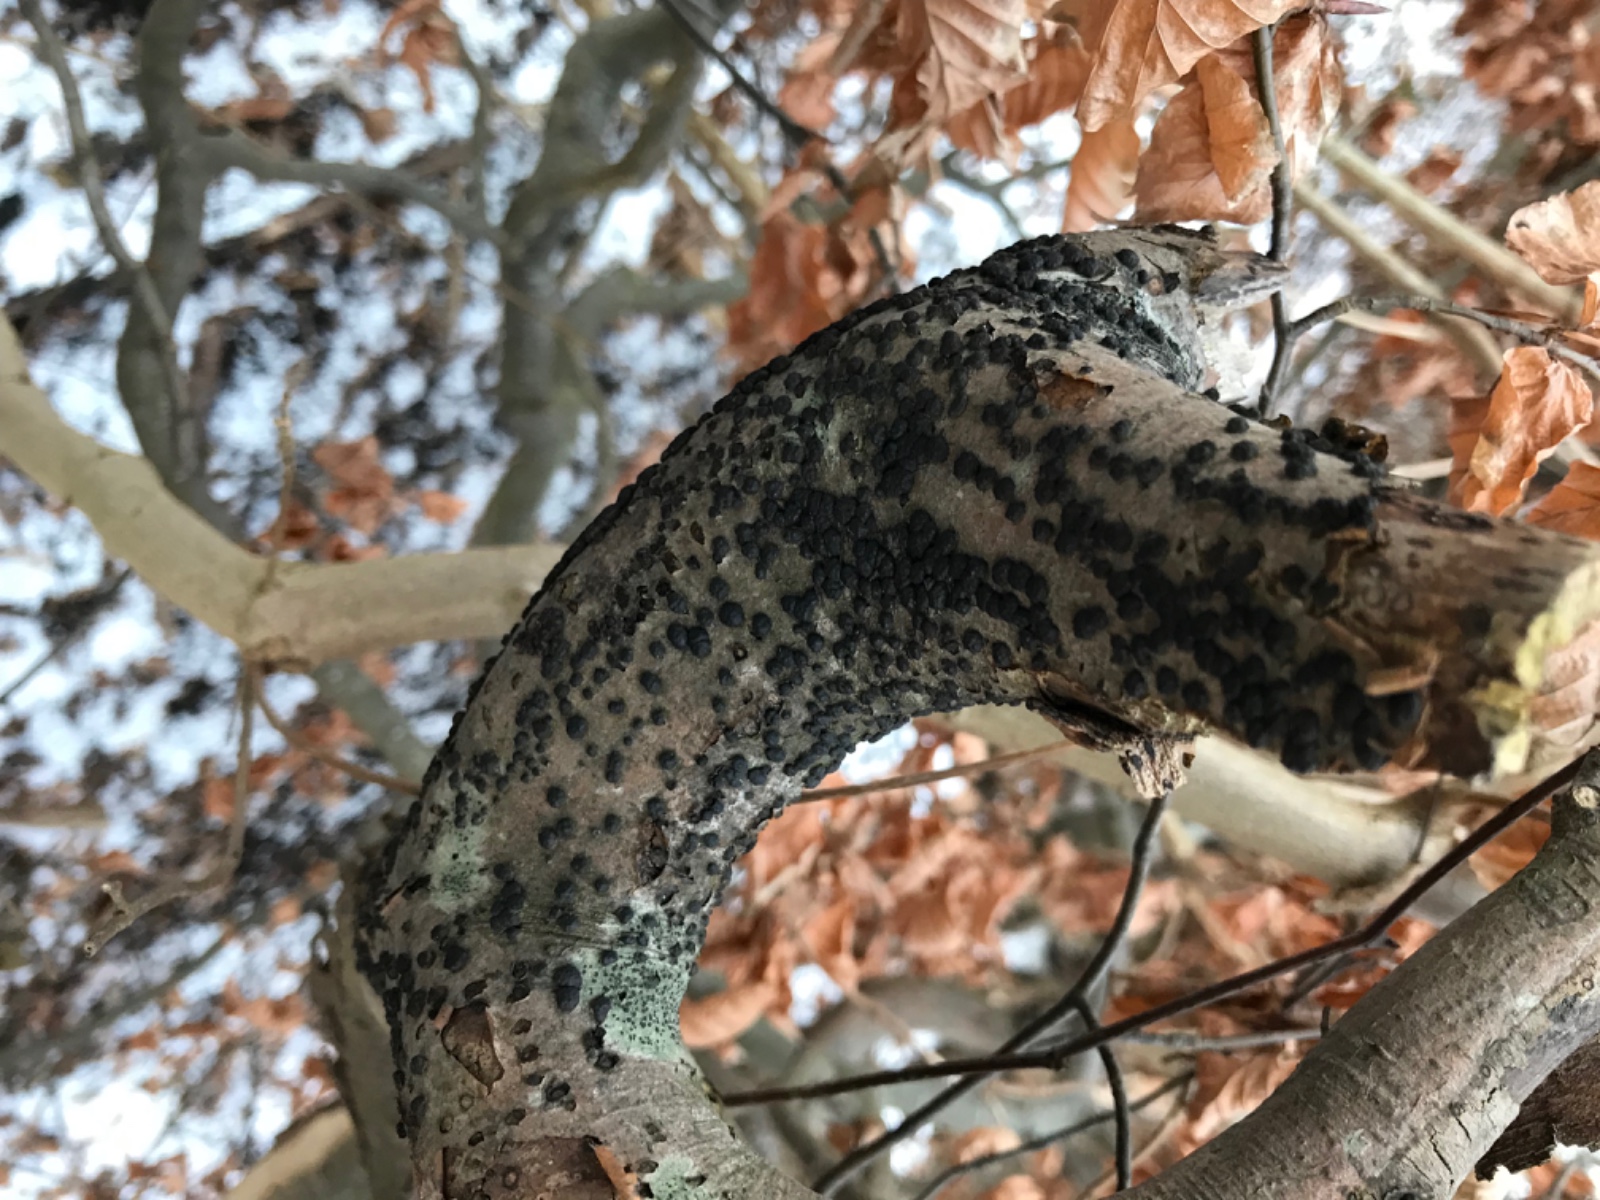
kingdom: Fungi
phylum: Ascomycota
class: Sordariomycetes
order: Xylariales
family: Hypoxylaceae
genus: Jackrogersella
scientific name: Jackrogersella cohaerens
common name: sammenflydende kulbær
